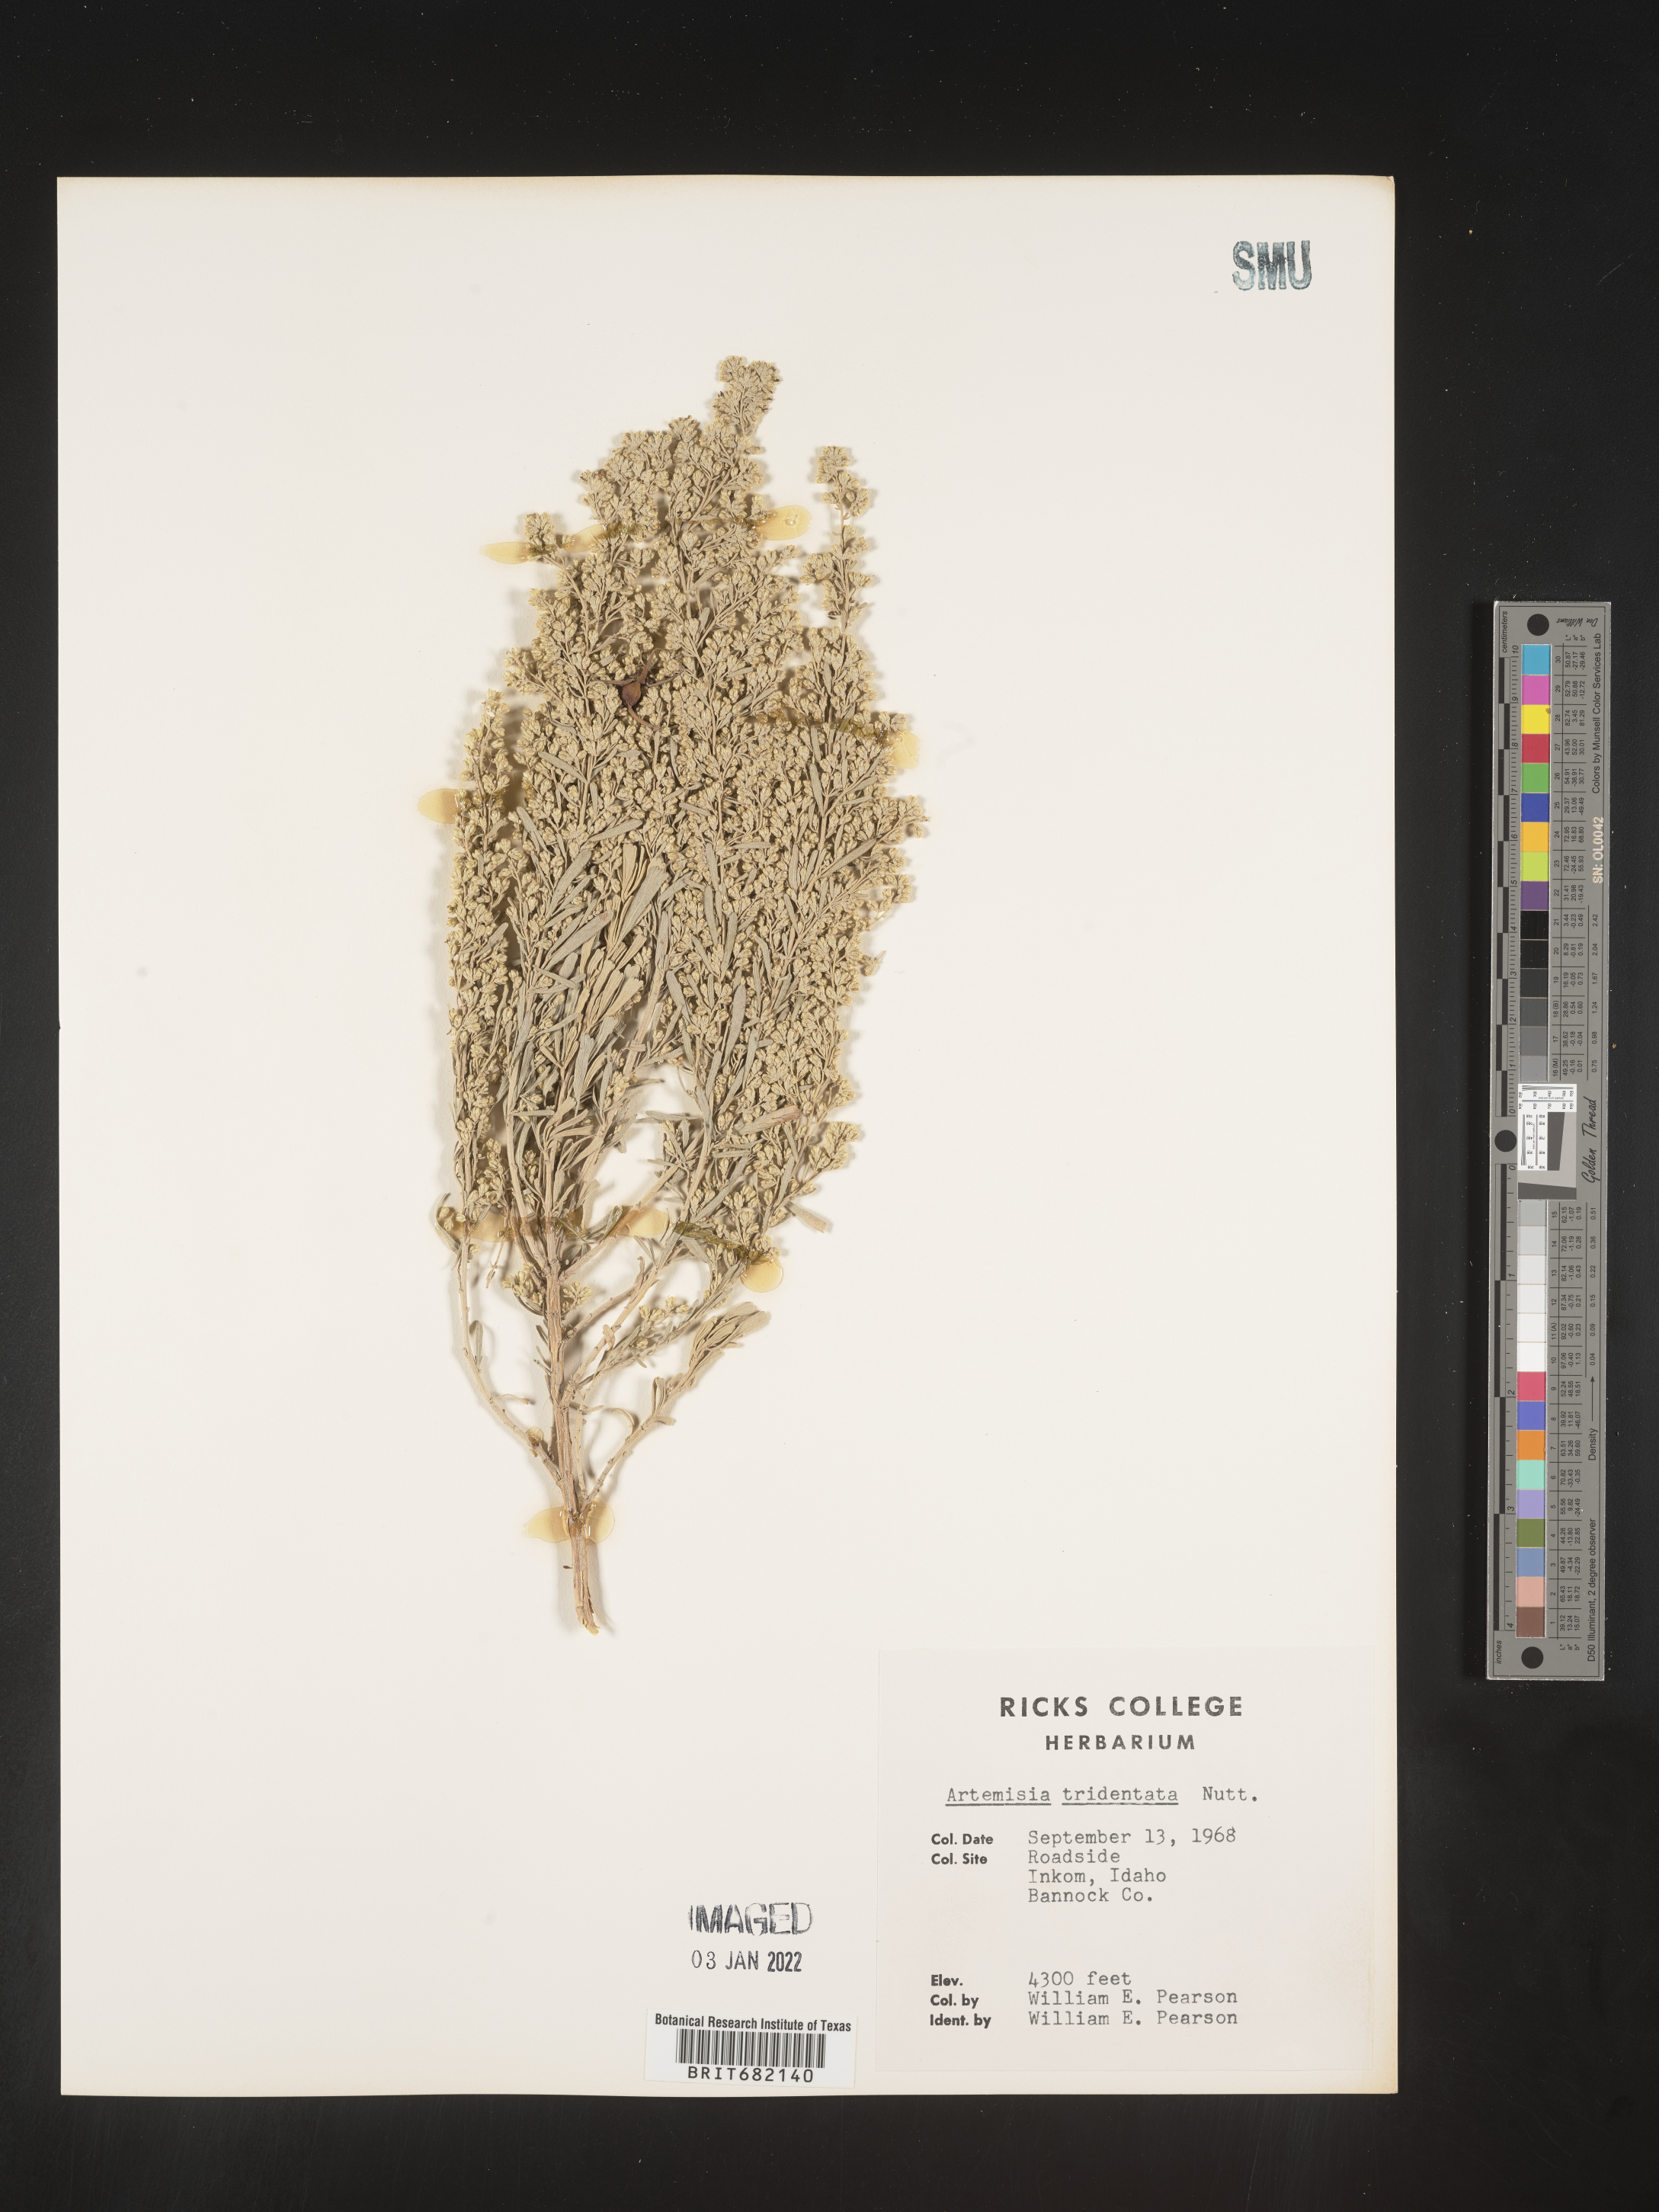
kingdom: Plantae
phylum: Tracheophyta
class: Magnoliopsida
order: Asterales
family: Asteraceae
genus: Artemisia
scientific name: Artemisia tridentata
